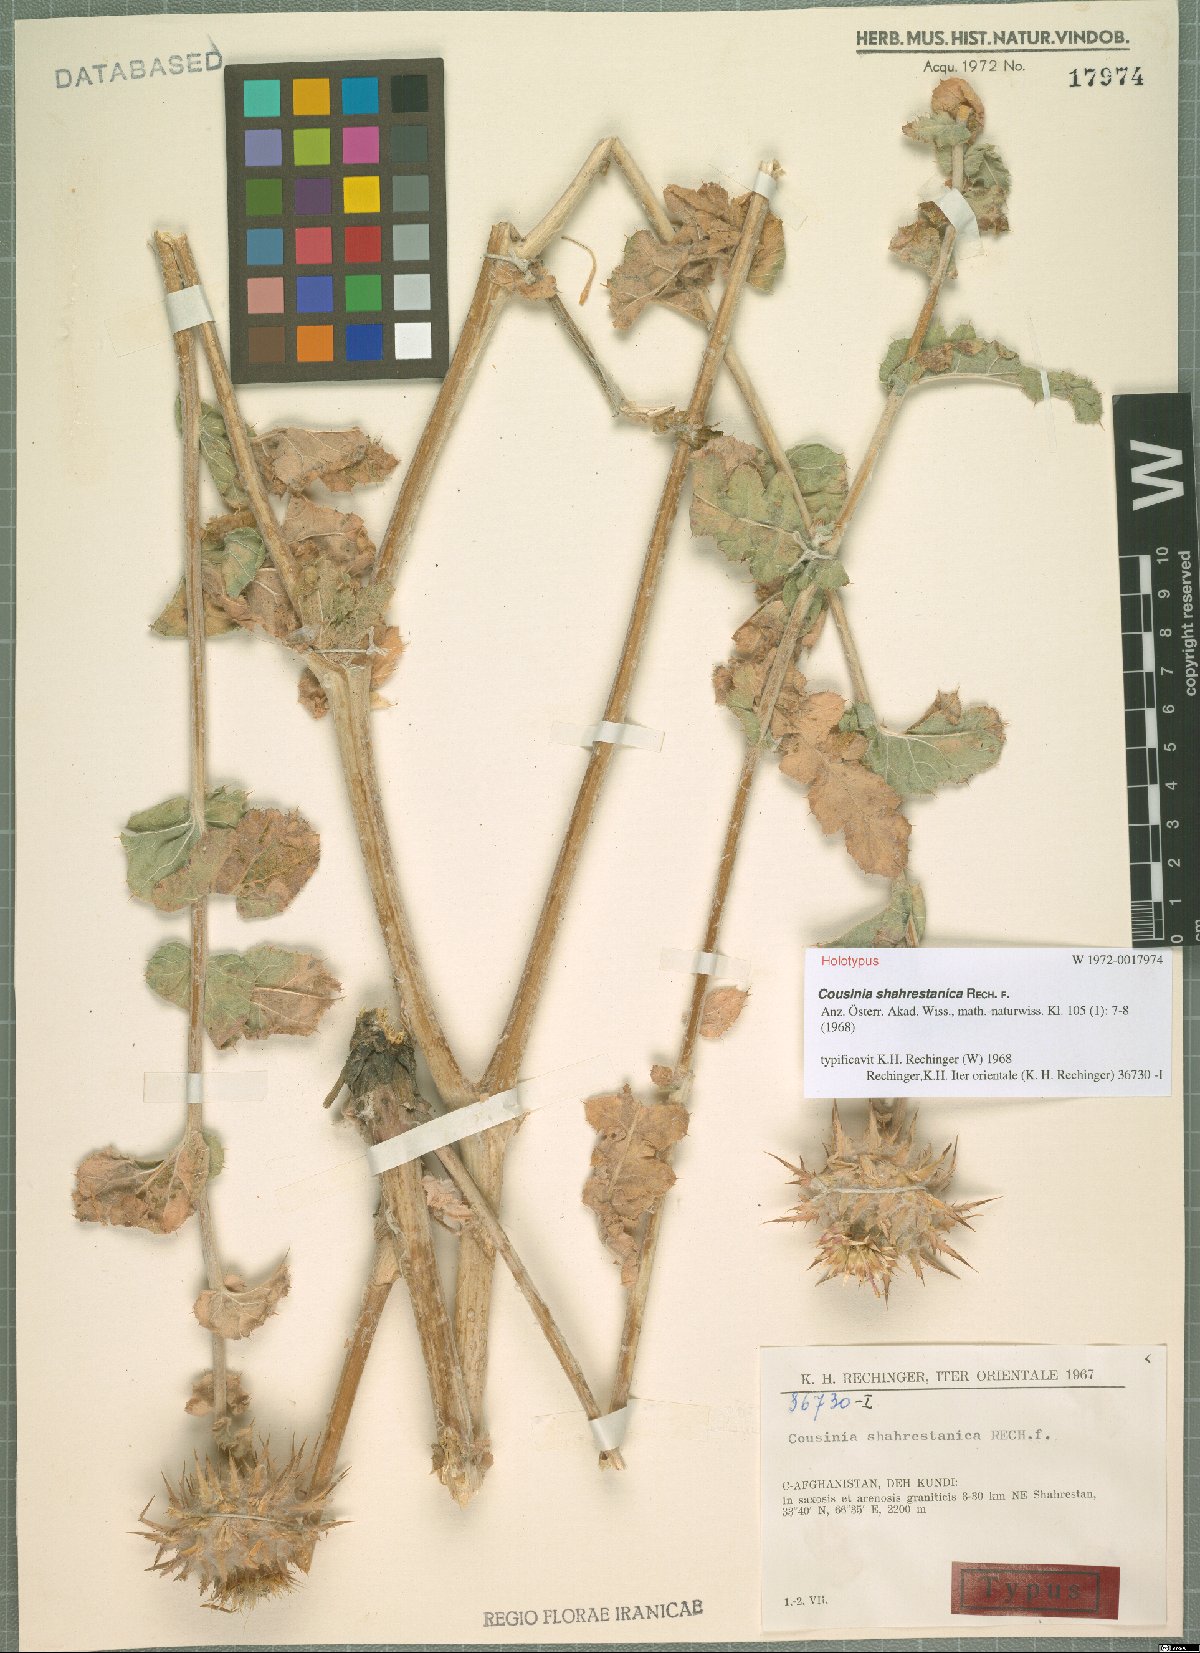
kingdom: Plantae
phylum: Tracheophyta
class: Magnoliopsida
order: Asterales
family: Asteraceae
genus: Cousinia
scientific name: Cousinia shahrestanica
